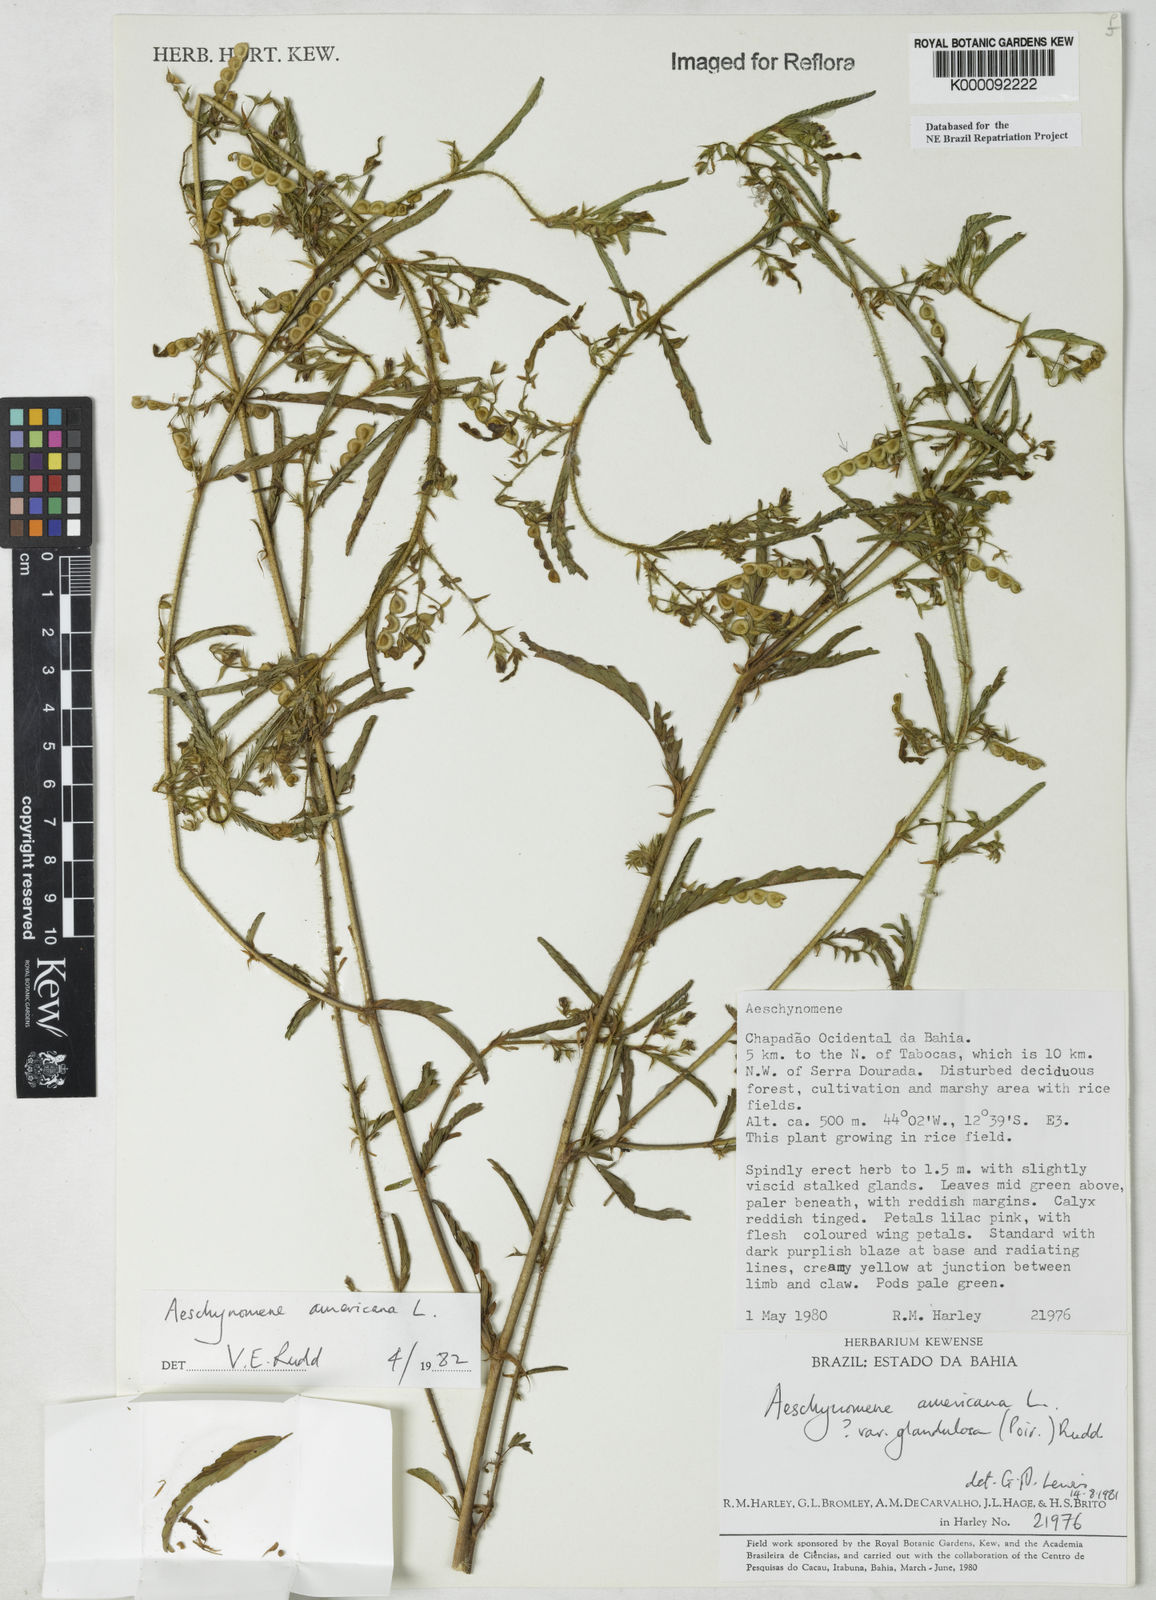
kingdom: Plantae
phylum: Tracheophyta
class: Magnoliopsida
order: Fabales
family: Fabaceae
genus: Aeschynomene
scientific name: Aeschynomene americana
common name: Joint-vetch
